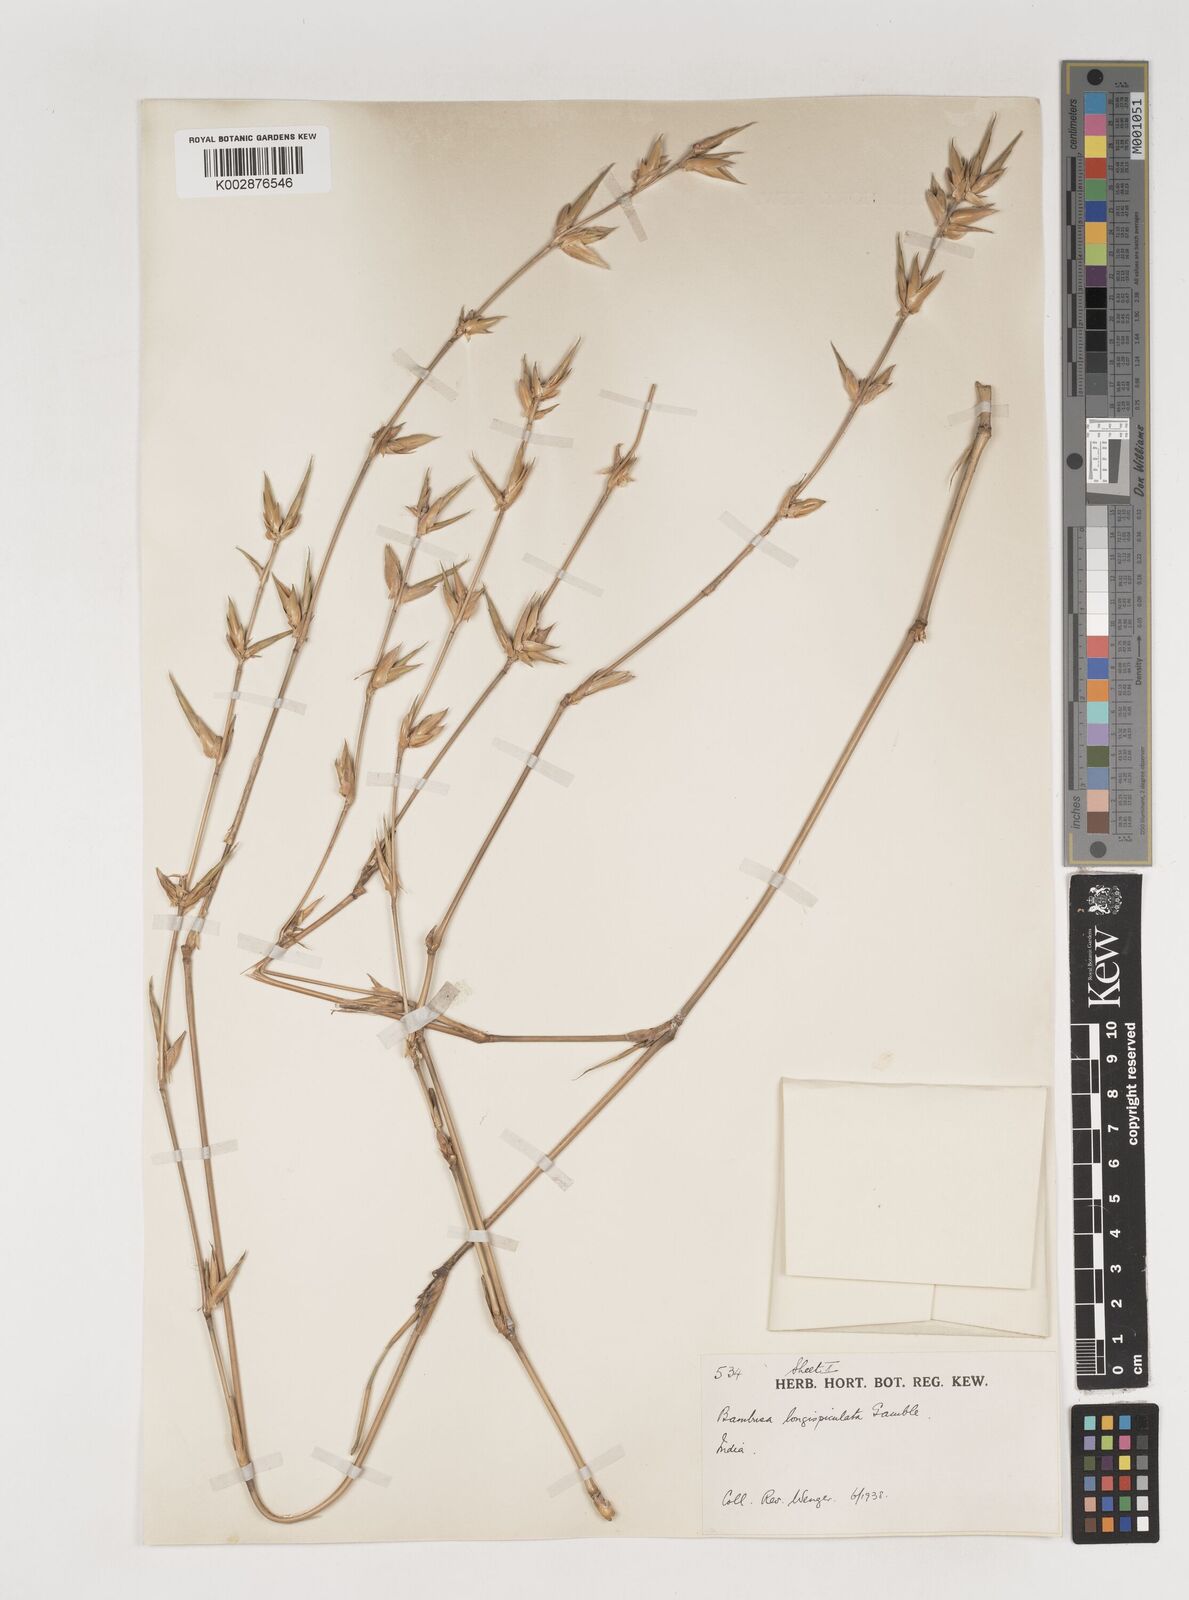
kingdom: Plantae
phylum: Tracheophyta
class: Liliopsida
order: Poales
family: Poaceae
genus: Bambusa
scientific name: Bambusa longispiculata
